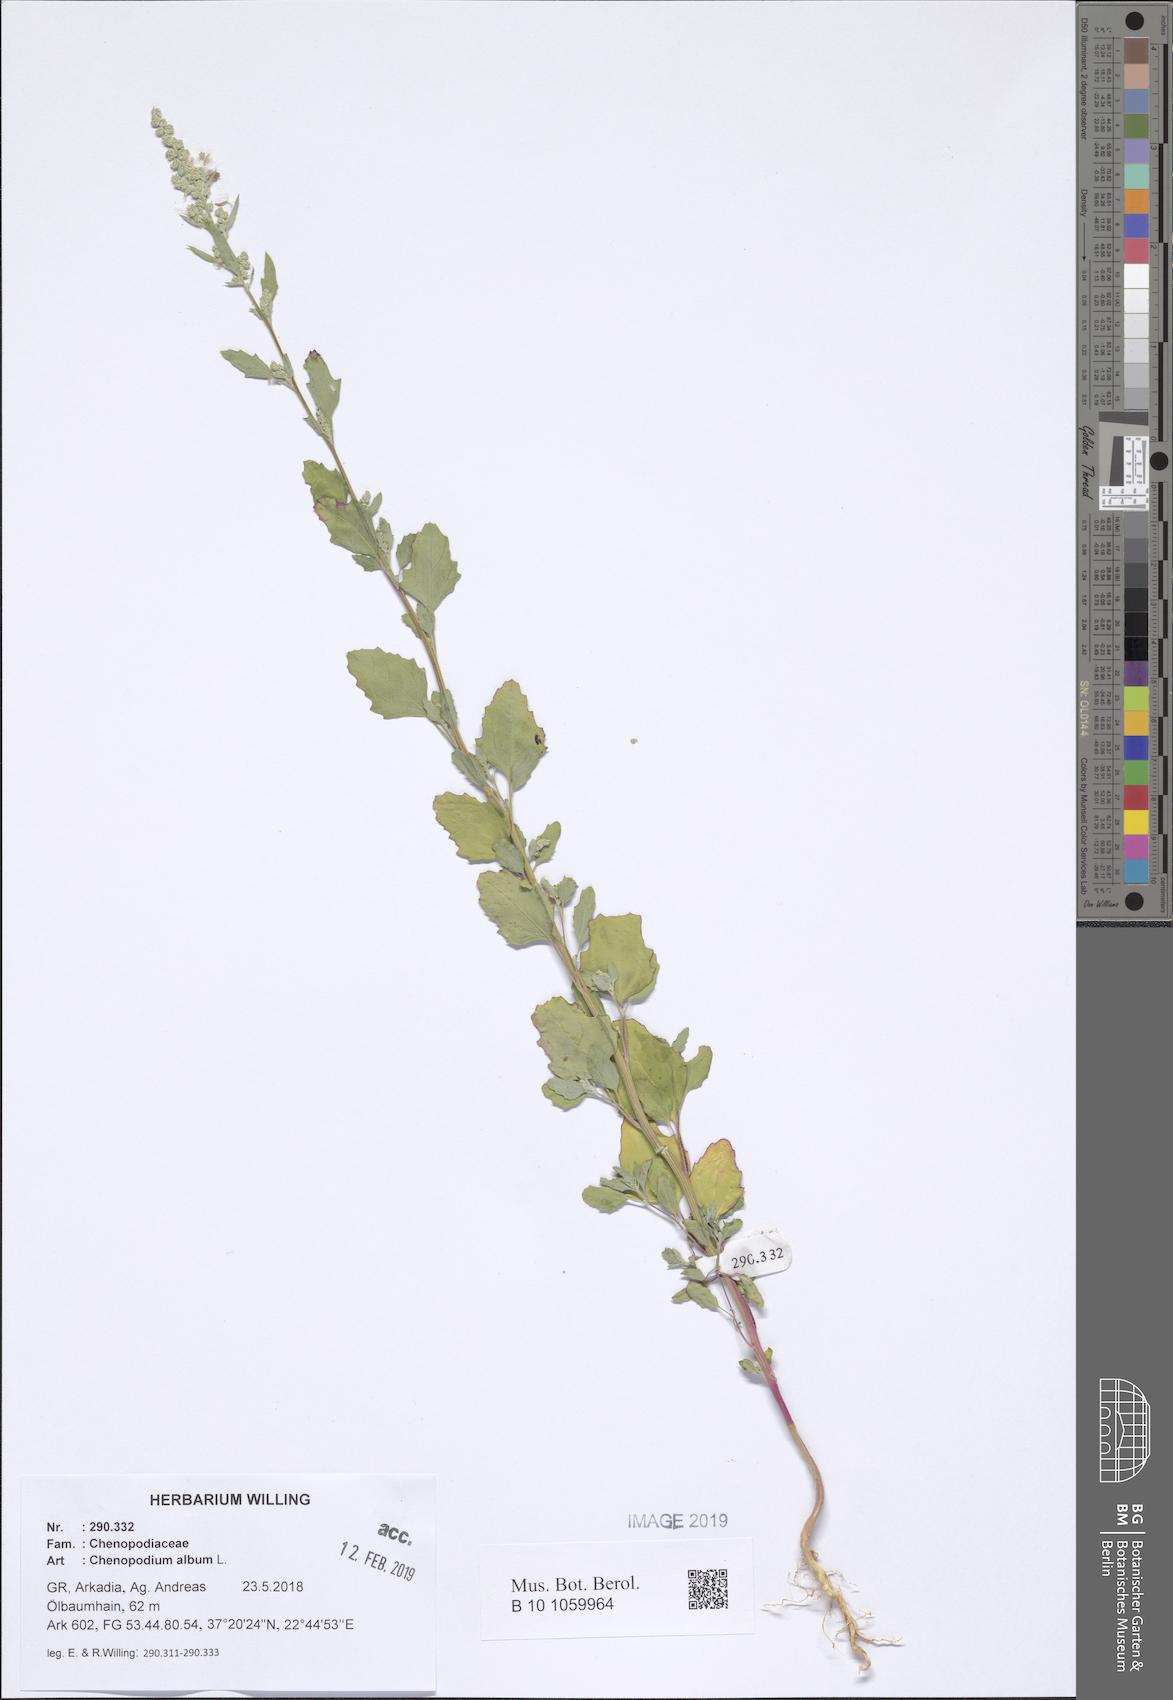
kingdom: Plantae
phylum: Tracheophyta
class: Magnoliopsida
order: Caryophyllales
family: Amaranthaceae
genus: Chenopodium
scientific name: Chenopodium album
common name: Fat-hen
